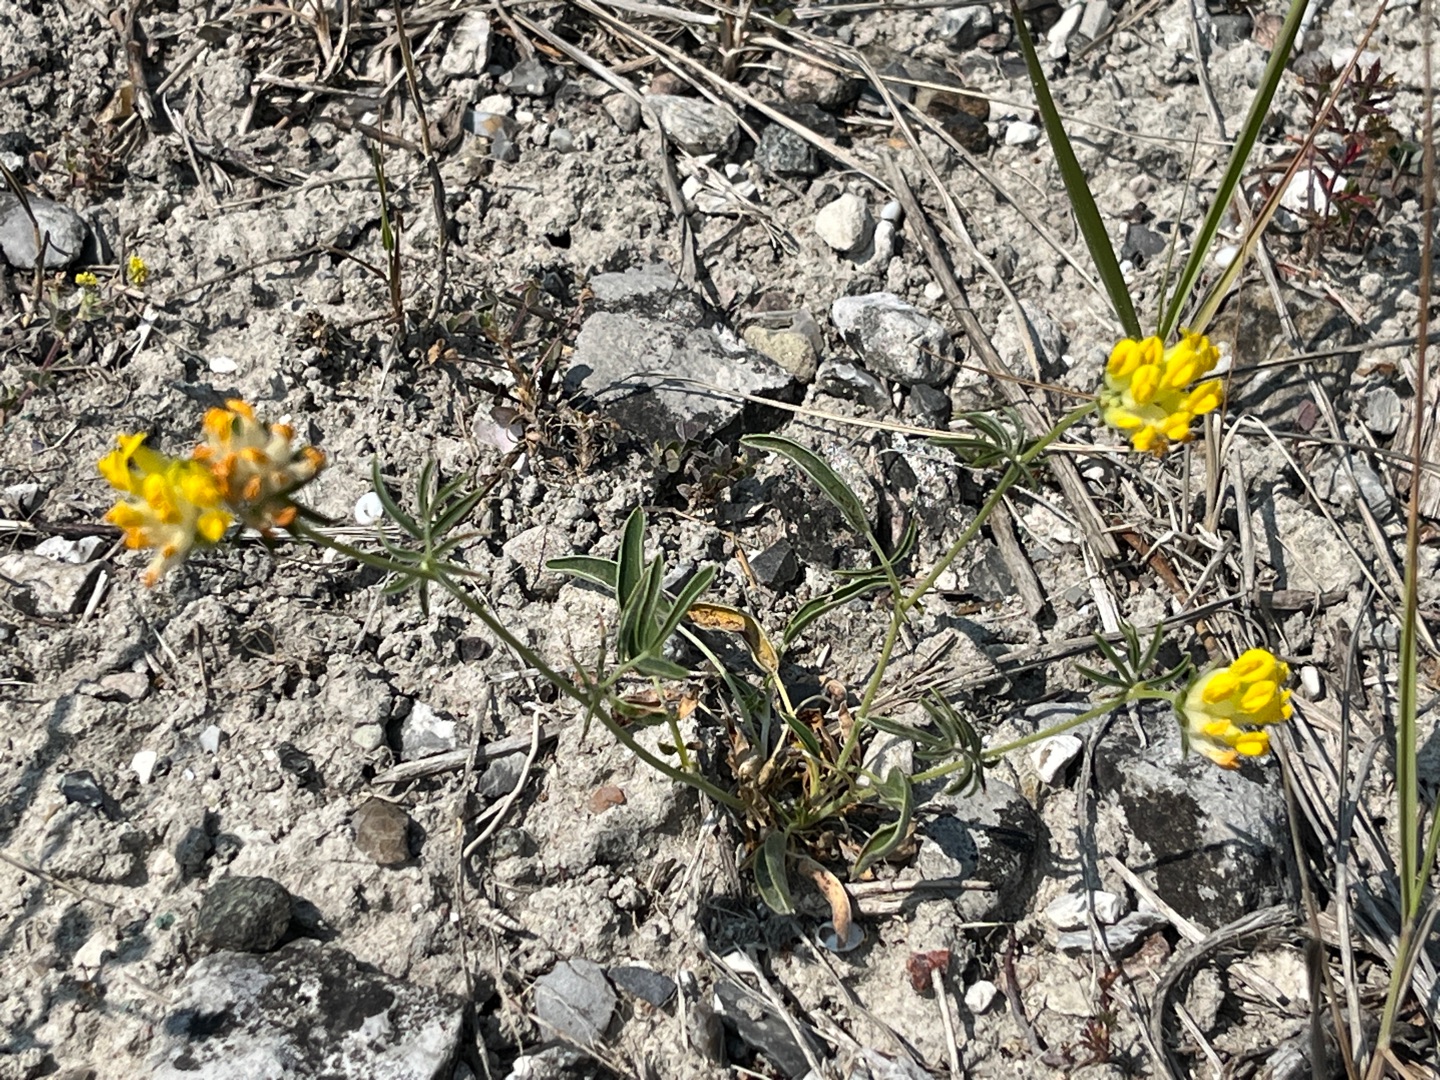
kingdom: Plantae
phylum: Tracheophyta
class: Magnoliopsida
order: Fabales
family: Fabaceae
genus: Anthyllis
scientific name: Anthyllis vulneraria
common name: Rundbælg
